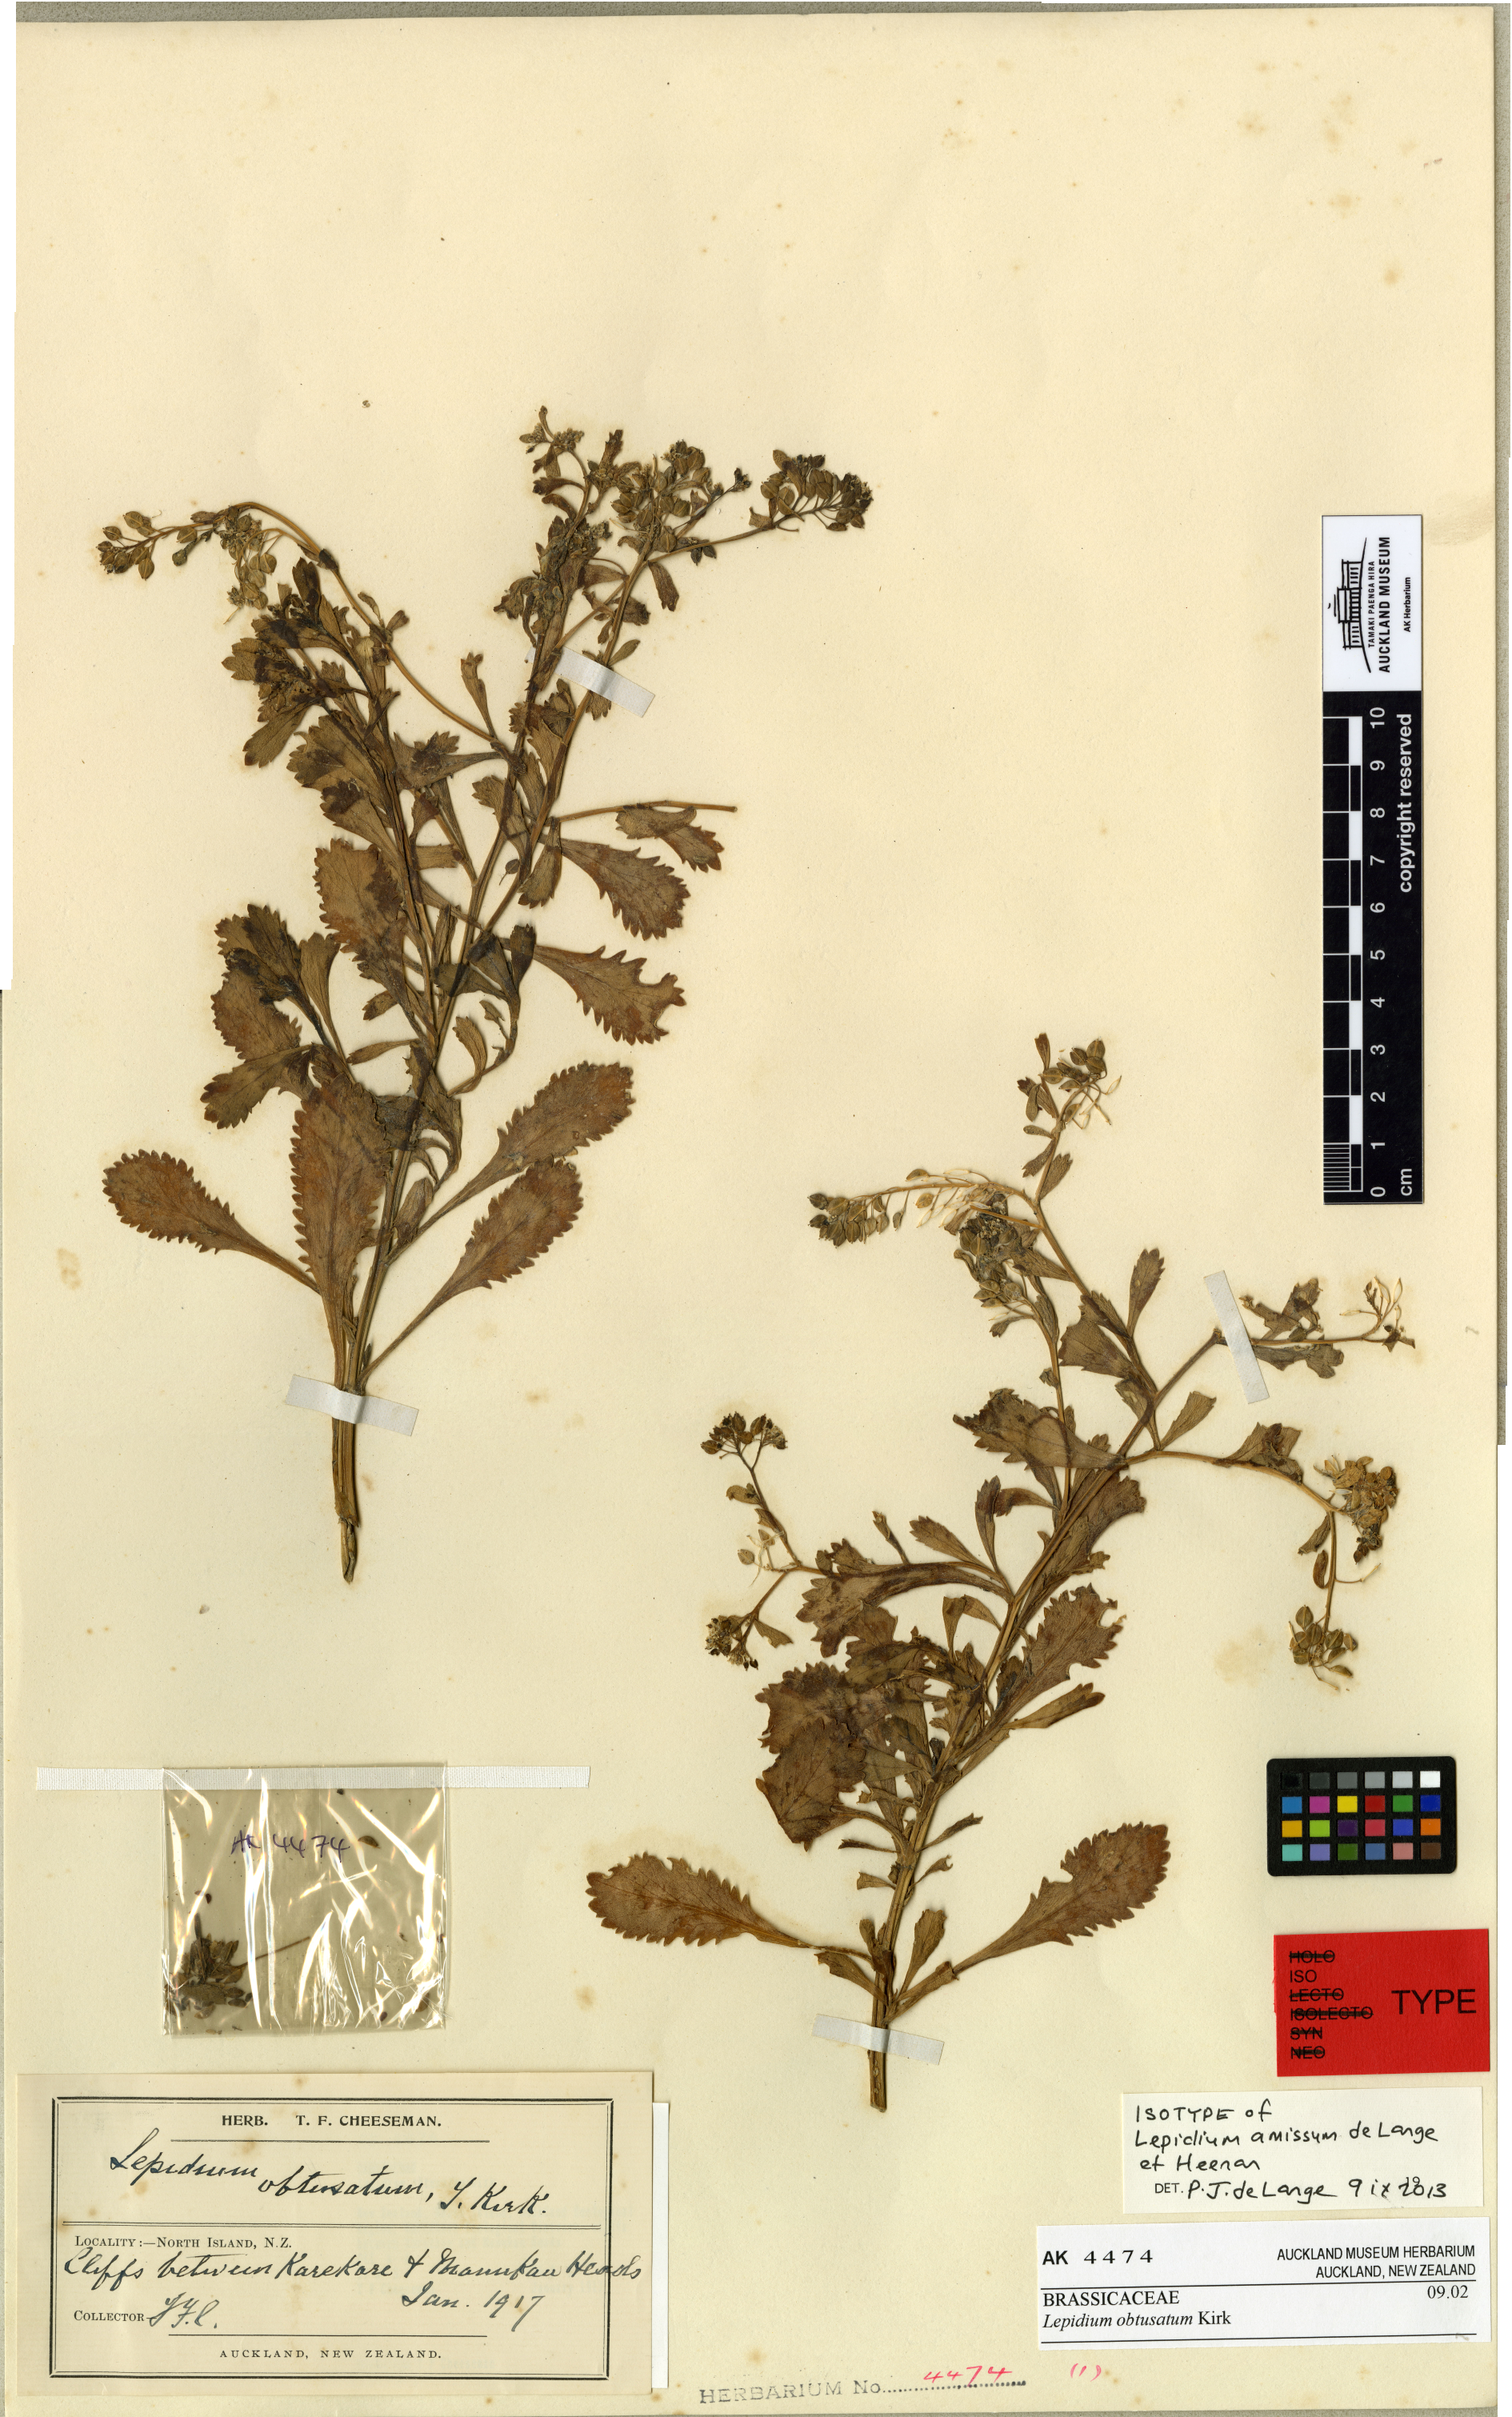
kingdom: Plantae
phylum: Tracheophyta
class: Magnoliopsida
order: Brassicales
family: Brassicaceae
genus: Lepidium
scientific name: Lepidium amissum
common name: Waitakere scurvy grass
